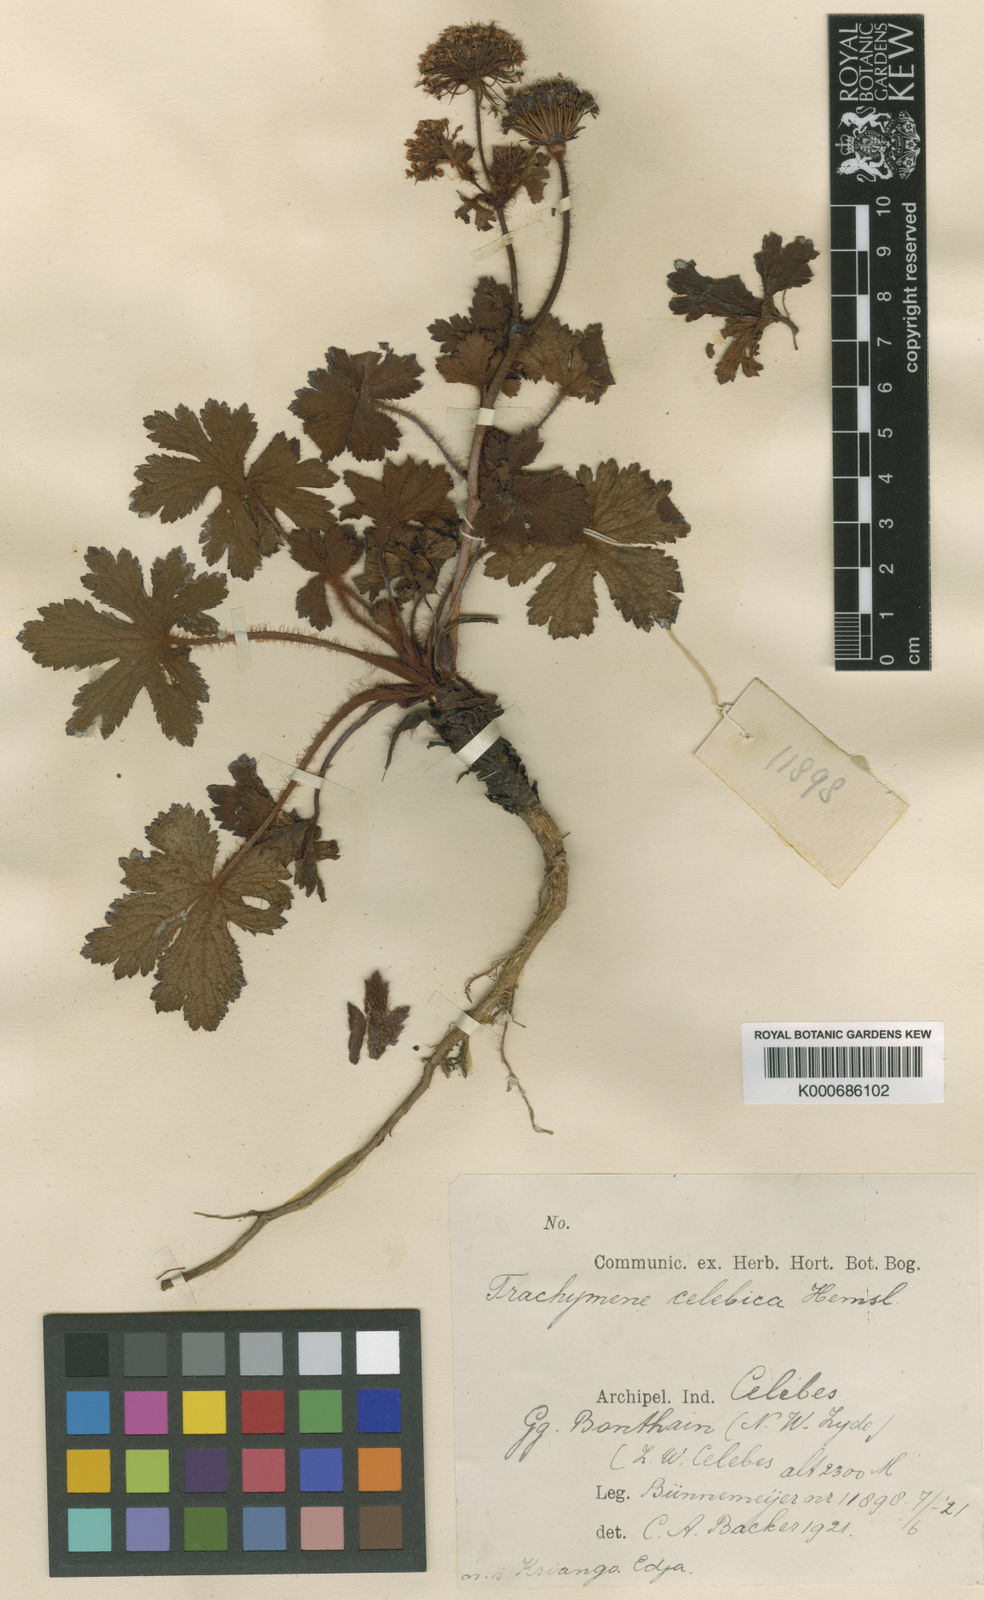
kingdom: Plantae
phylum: Tracheophyta
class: Magnoliopsida
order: Apiales
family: Araliaceae
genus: Trachymene
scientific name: Trachymene celebica
